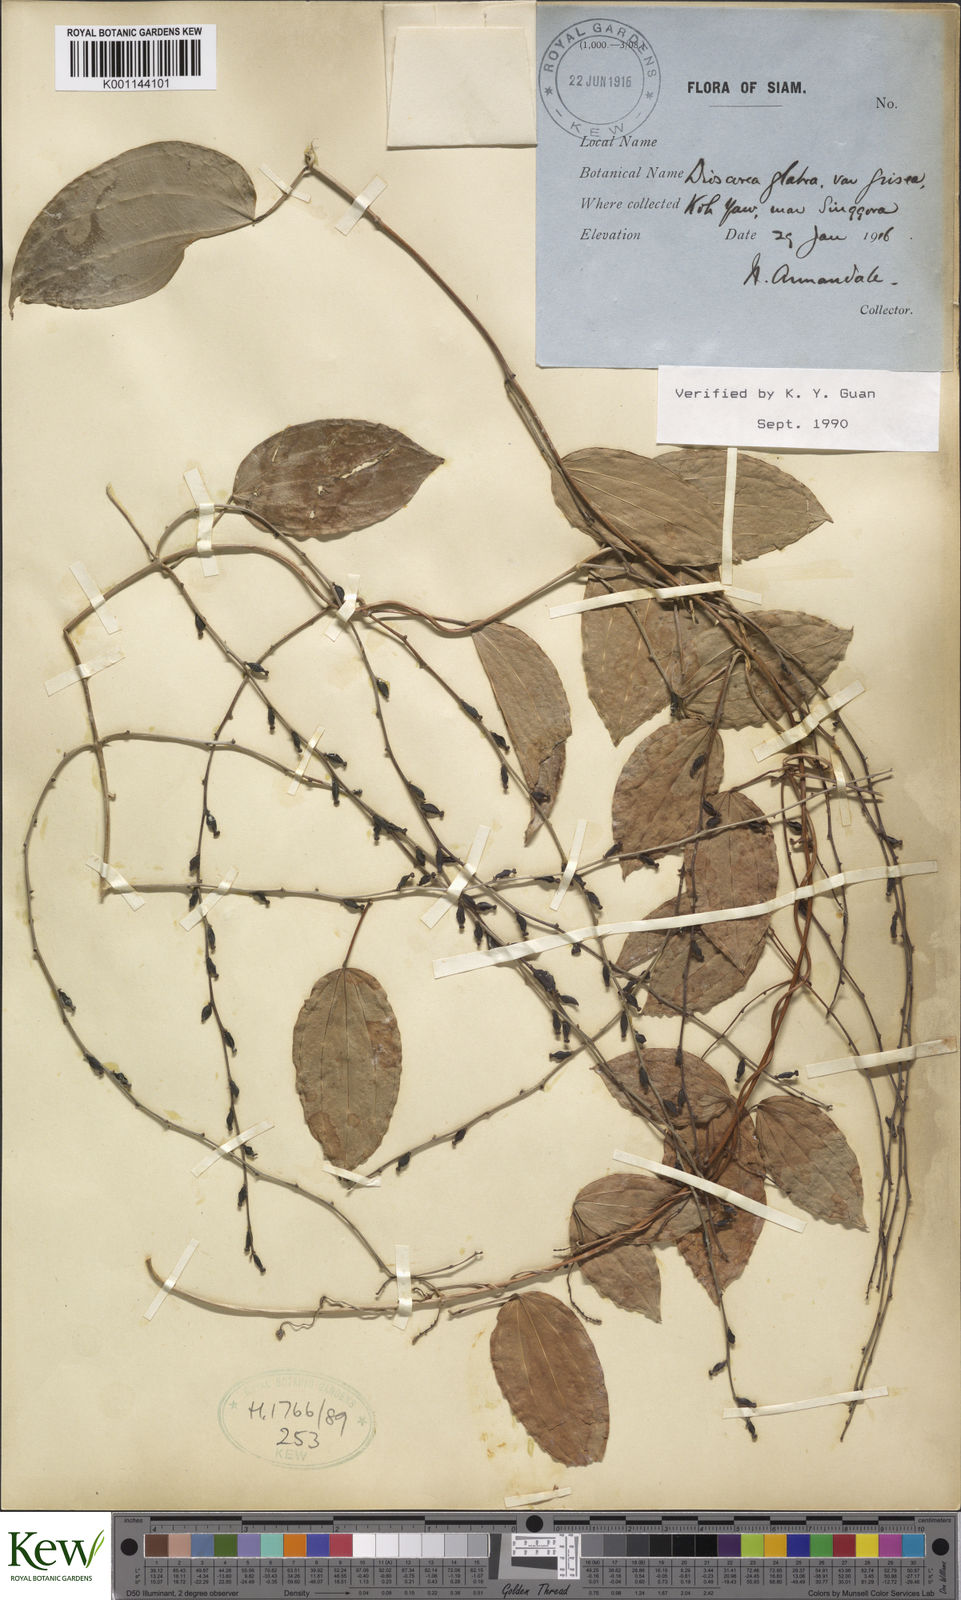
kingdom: Plantae
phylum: Tracheophyta
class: Liliopsida
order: Dioscoreales
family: Dioscoreaceae
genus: Dioscorea
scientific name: Dioscorea glabra
